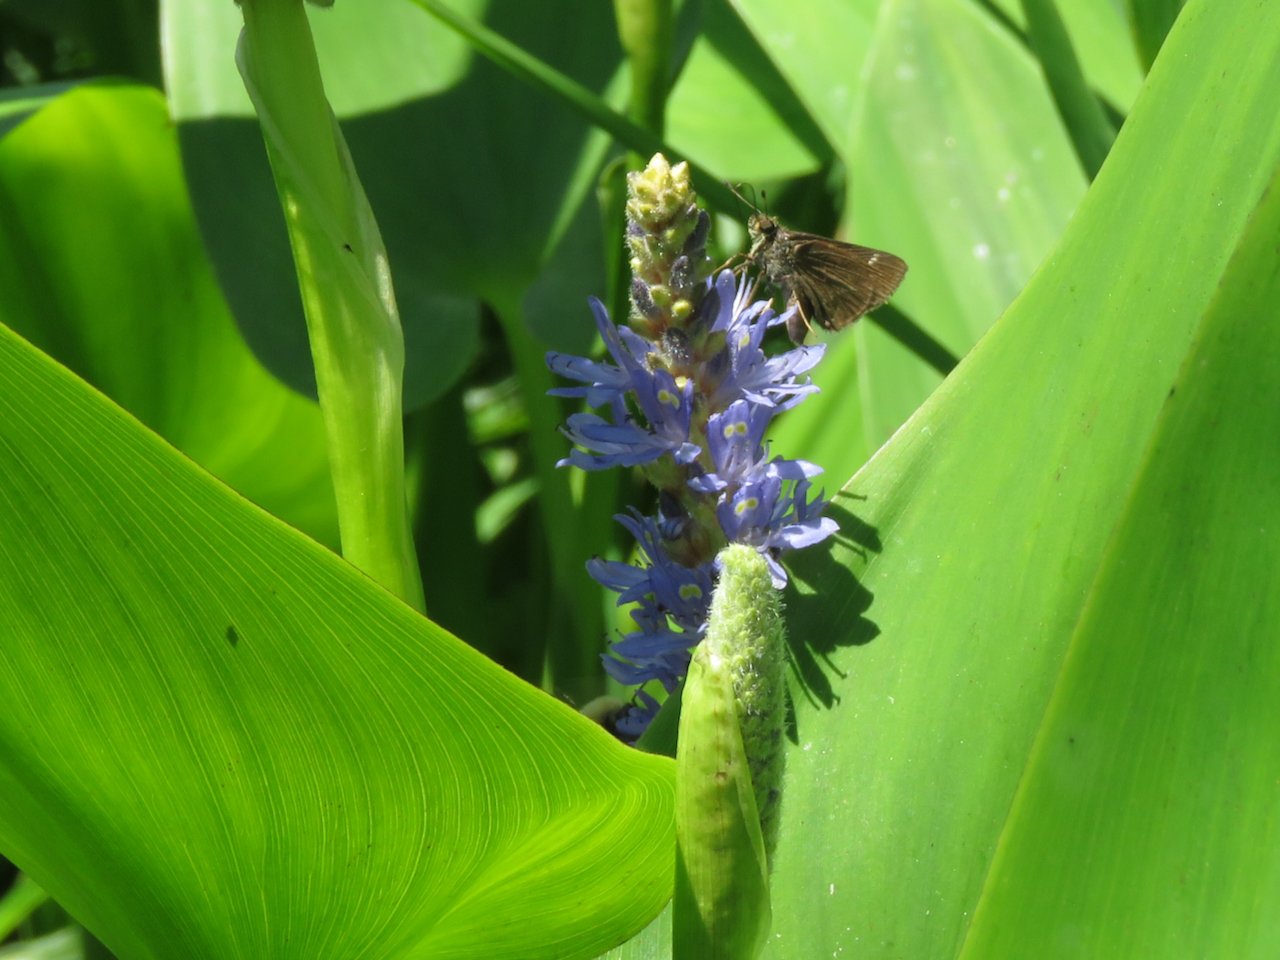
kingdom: Animalia
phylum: Arthropoda
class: Insecta
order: Lepidoptera
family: Hesperiidae
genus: Vernia
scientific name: Vernia verna
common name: Little Glassywing
